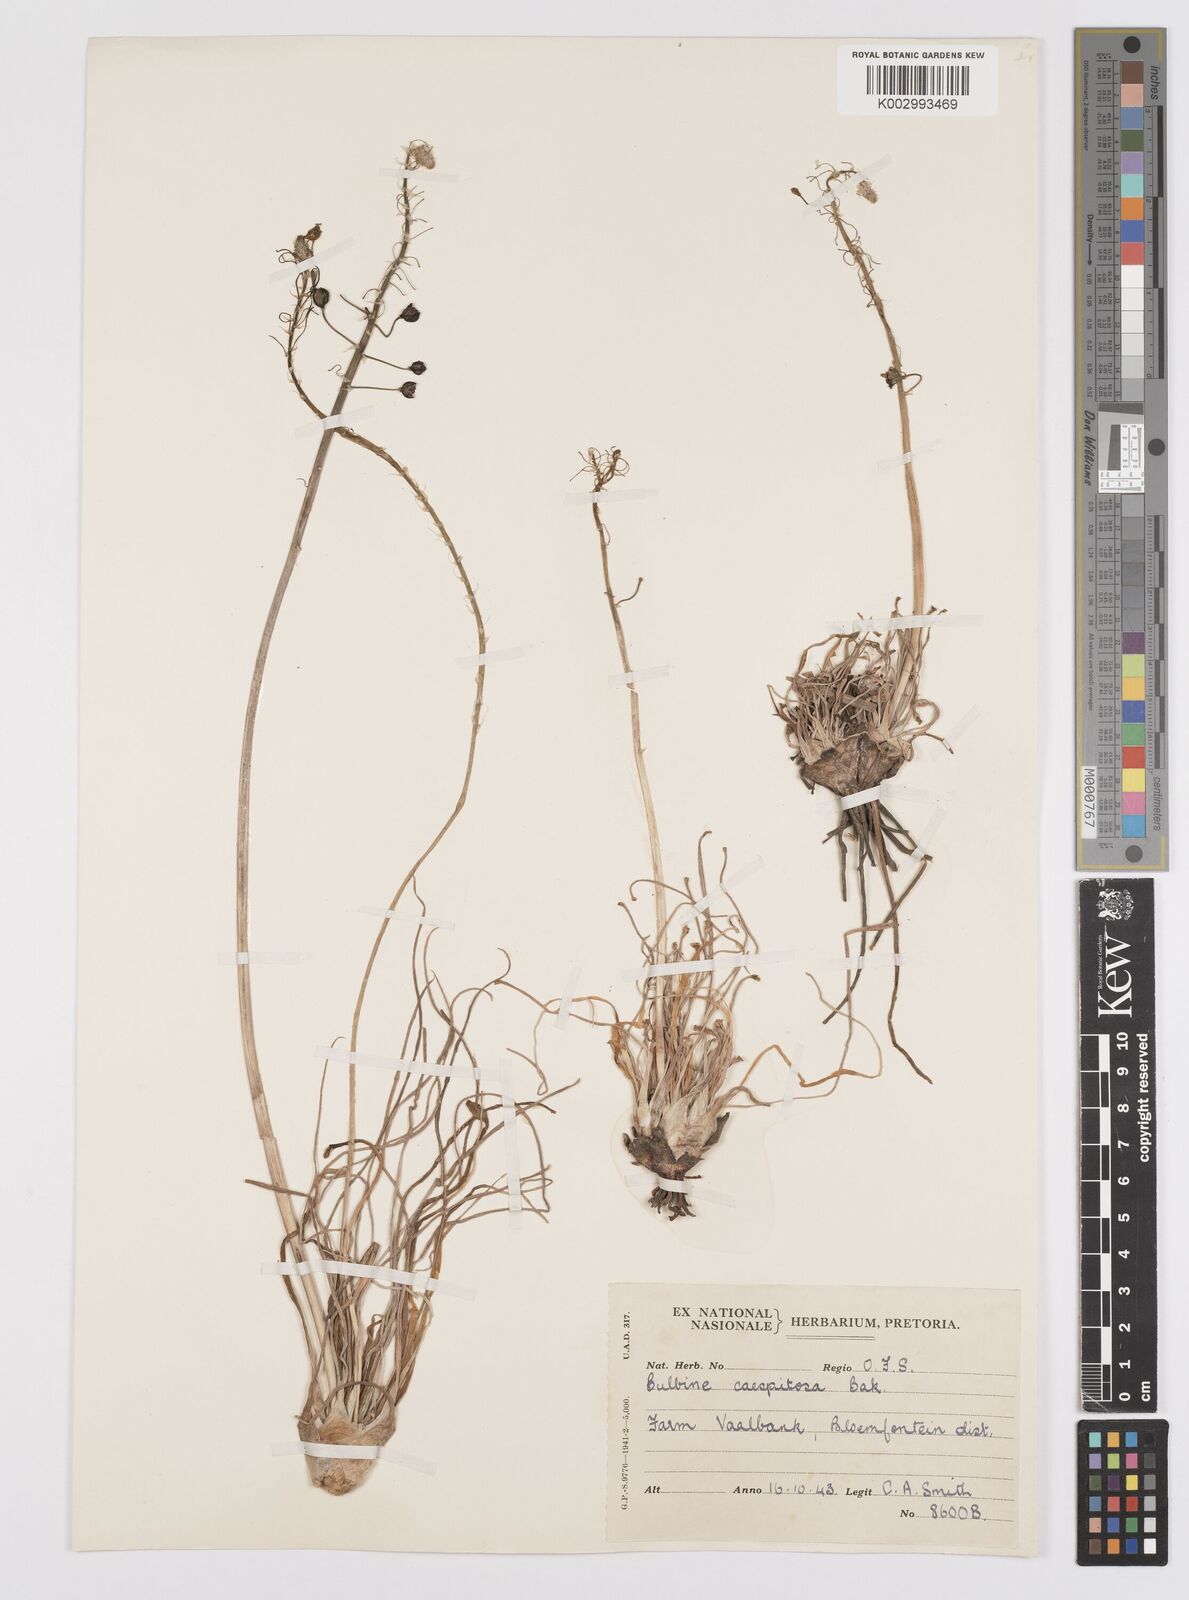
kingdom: Plantae
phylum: Tracheophyta
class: Liliopsida
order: Asparagales
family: Asphodelaceae
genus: Bulbine
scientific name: Bulbine asphodeloides
